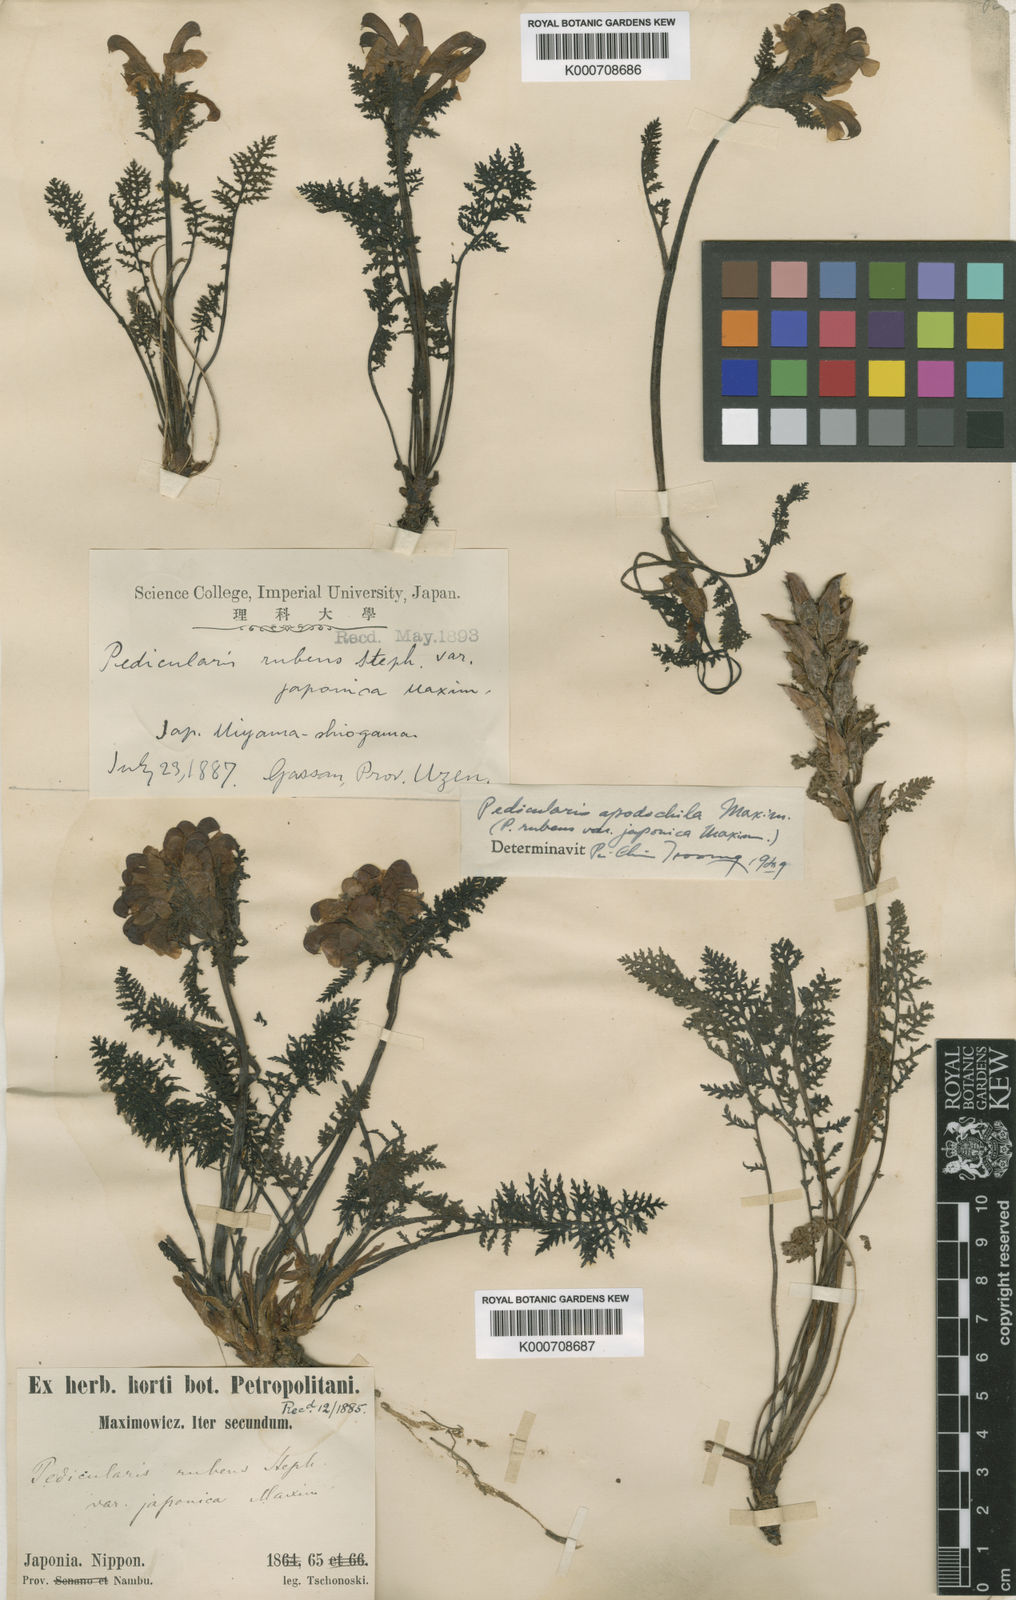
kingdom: Plantae
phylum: Tracheophyta
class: Magnoliopsida
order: Lamiales
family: Orobanchaceae
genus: Pedicularis
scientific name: Pedicularis apodochila
